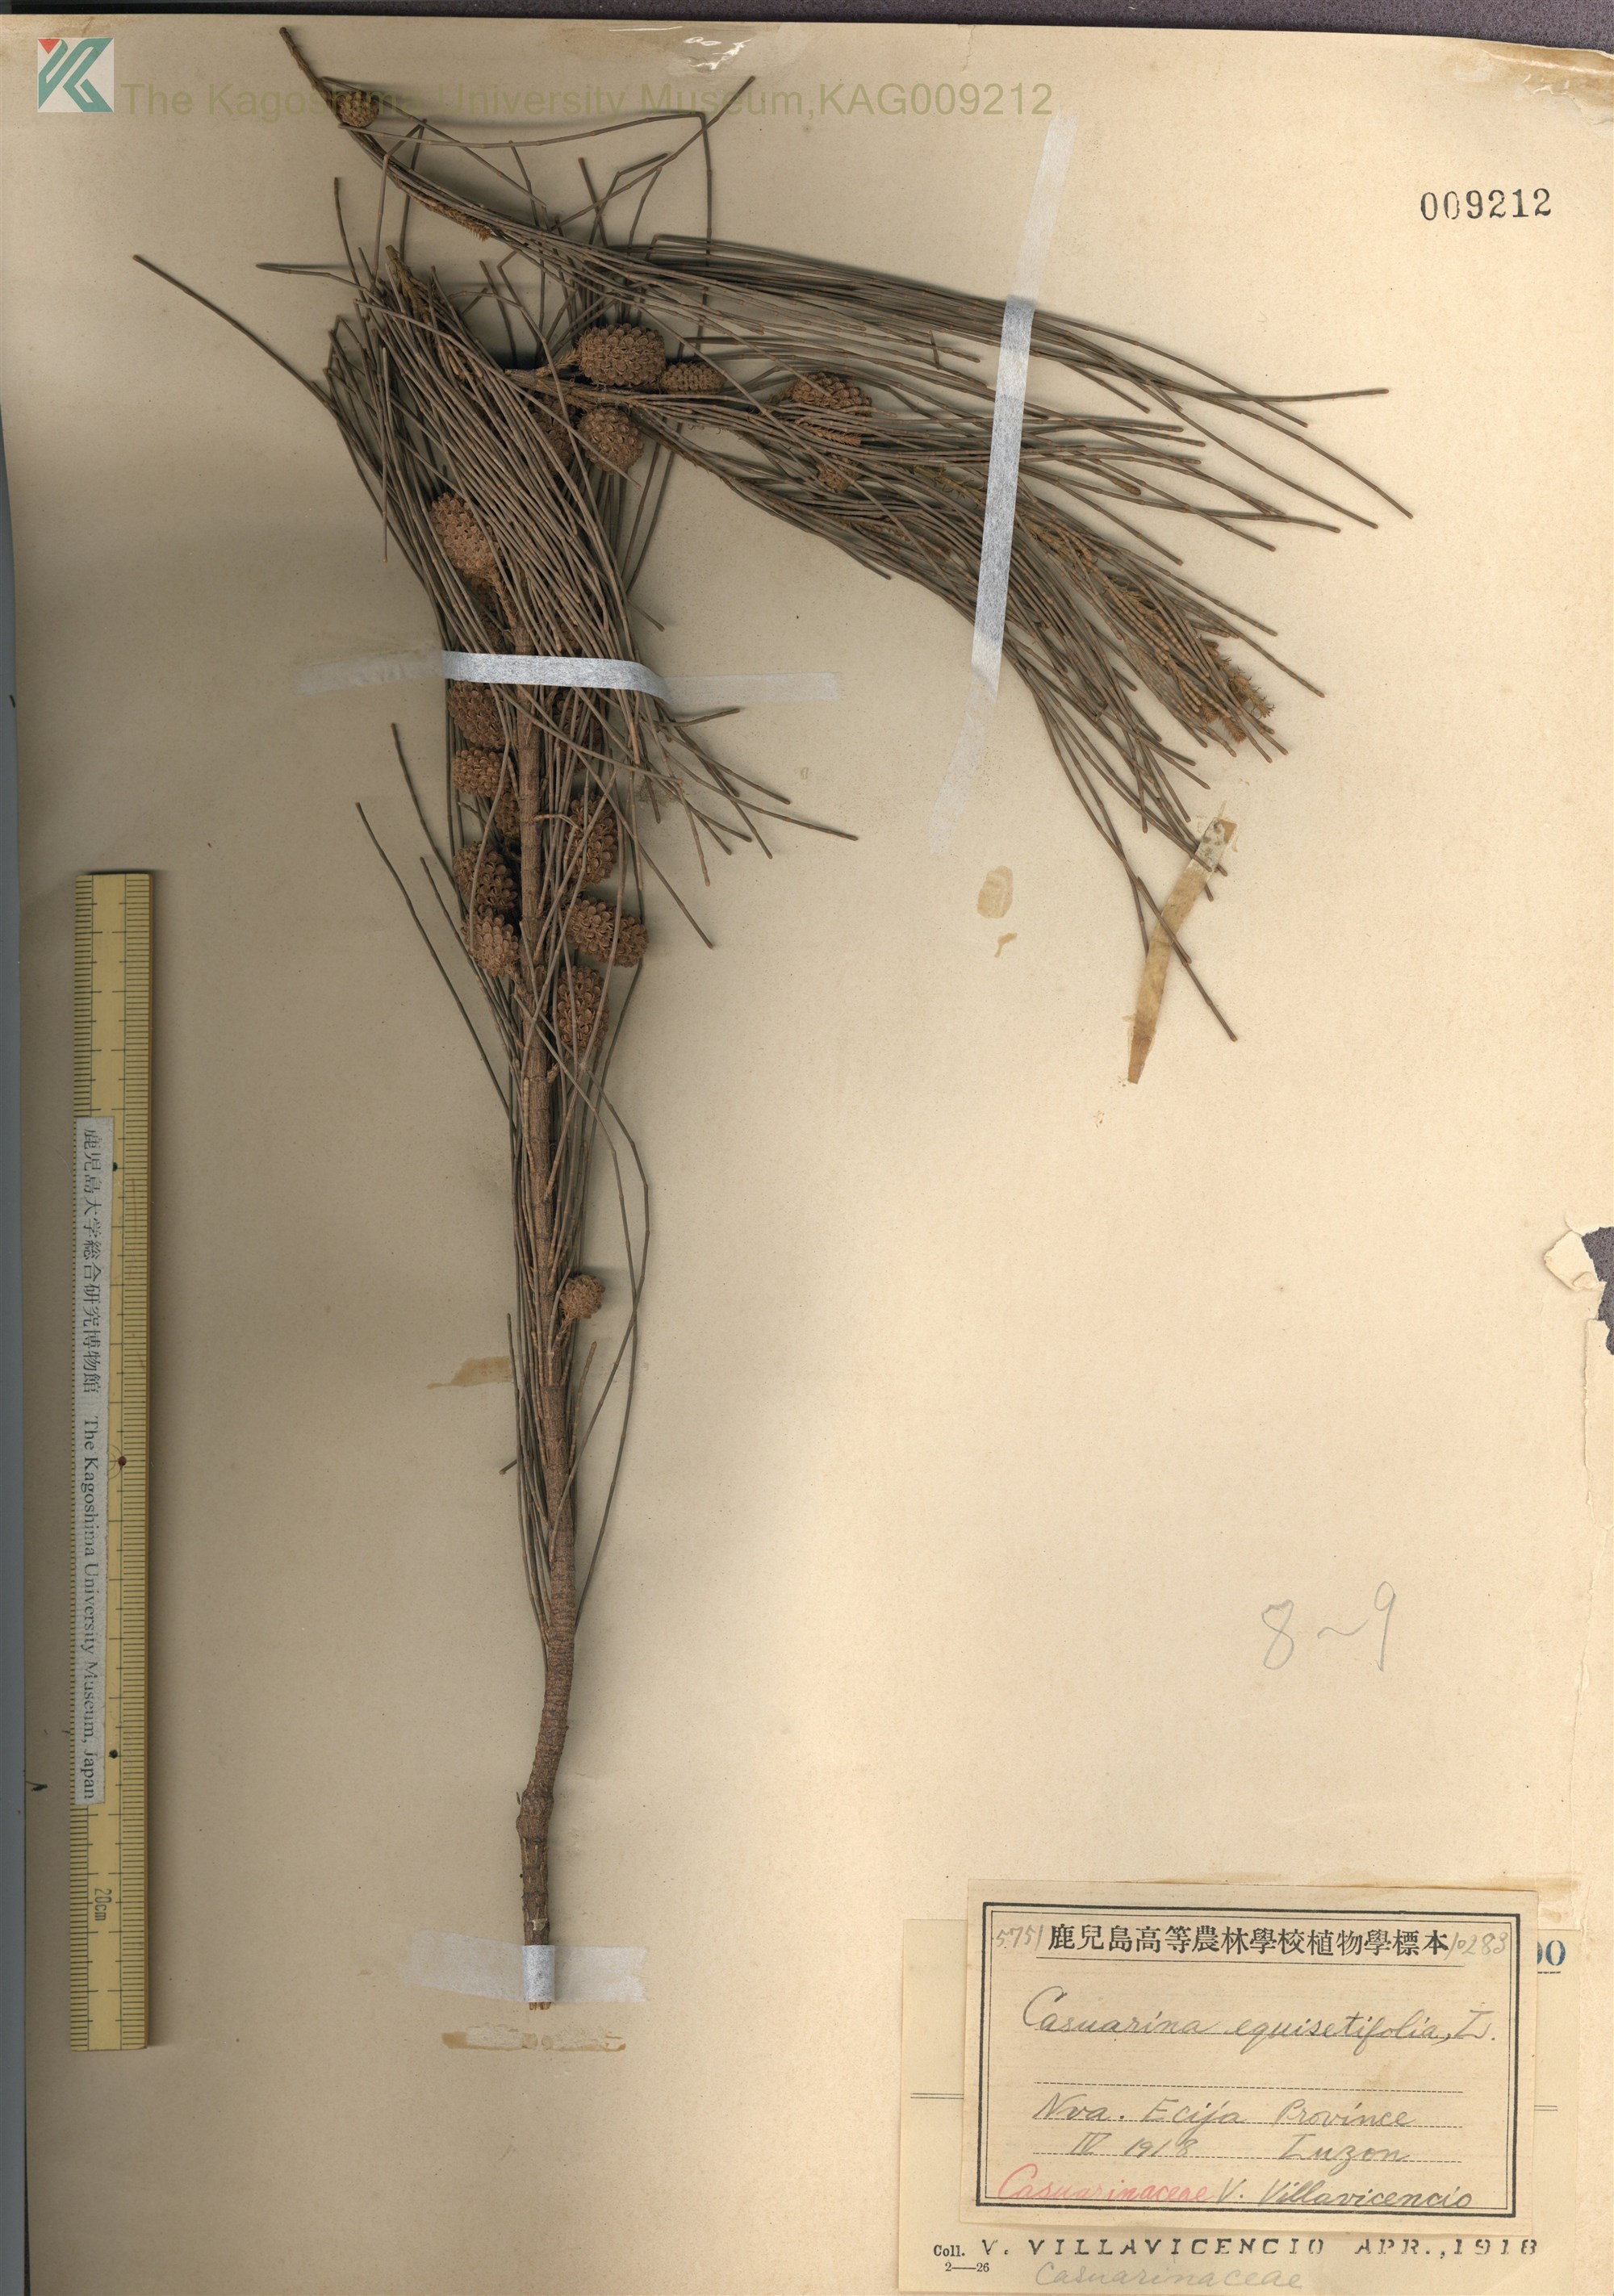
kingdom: Plantae
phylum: Tracheophyta
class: Magnoliopsida
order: Fagales
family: Casuarinaceae
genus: Casuarina
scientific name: Casuarina equisetifolia
